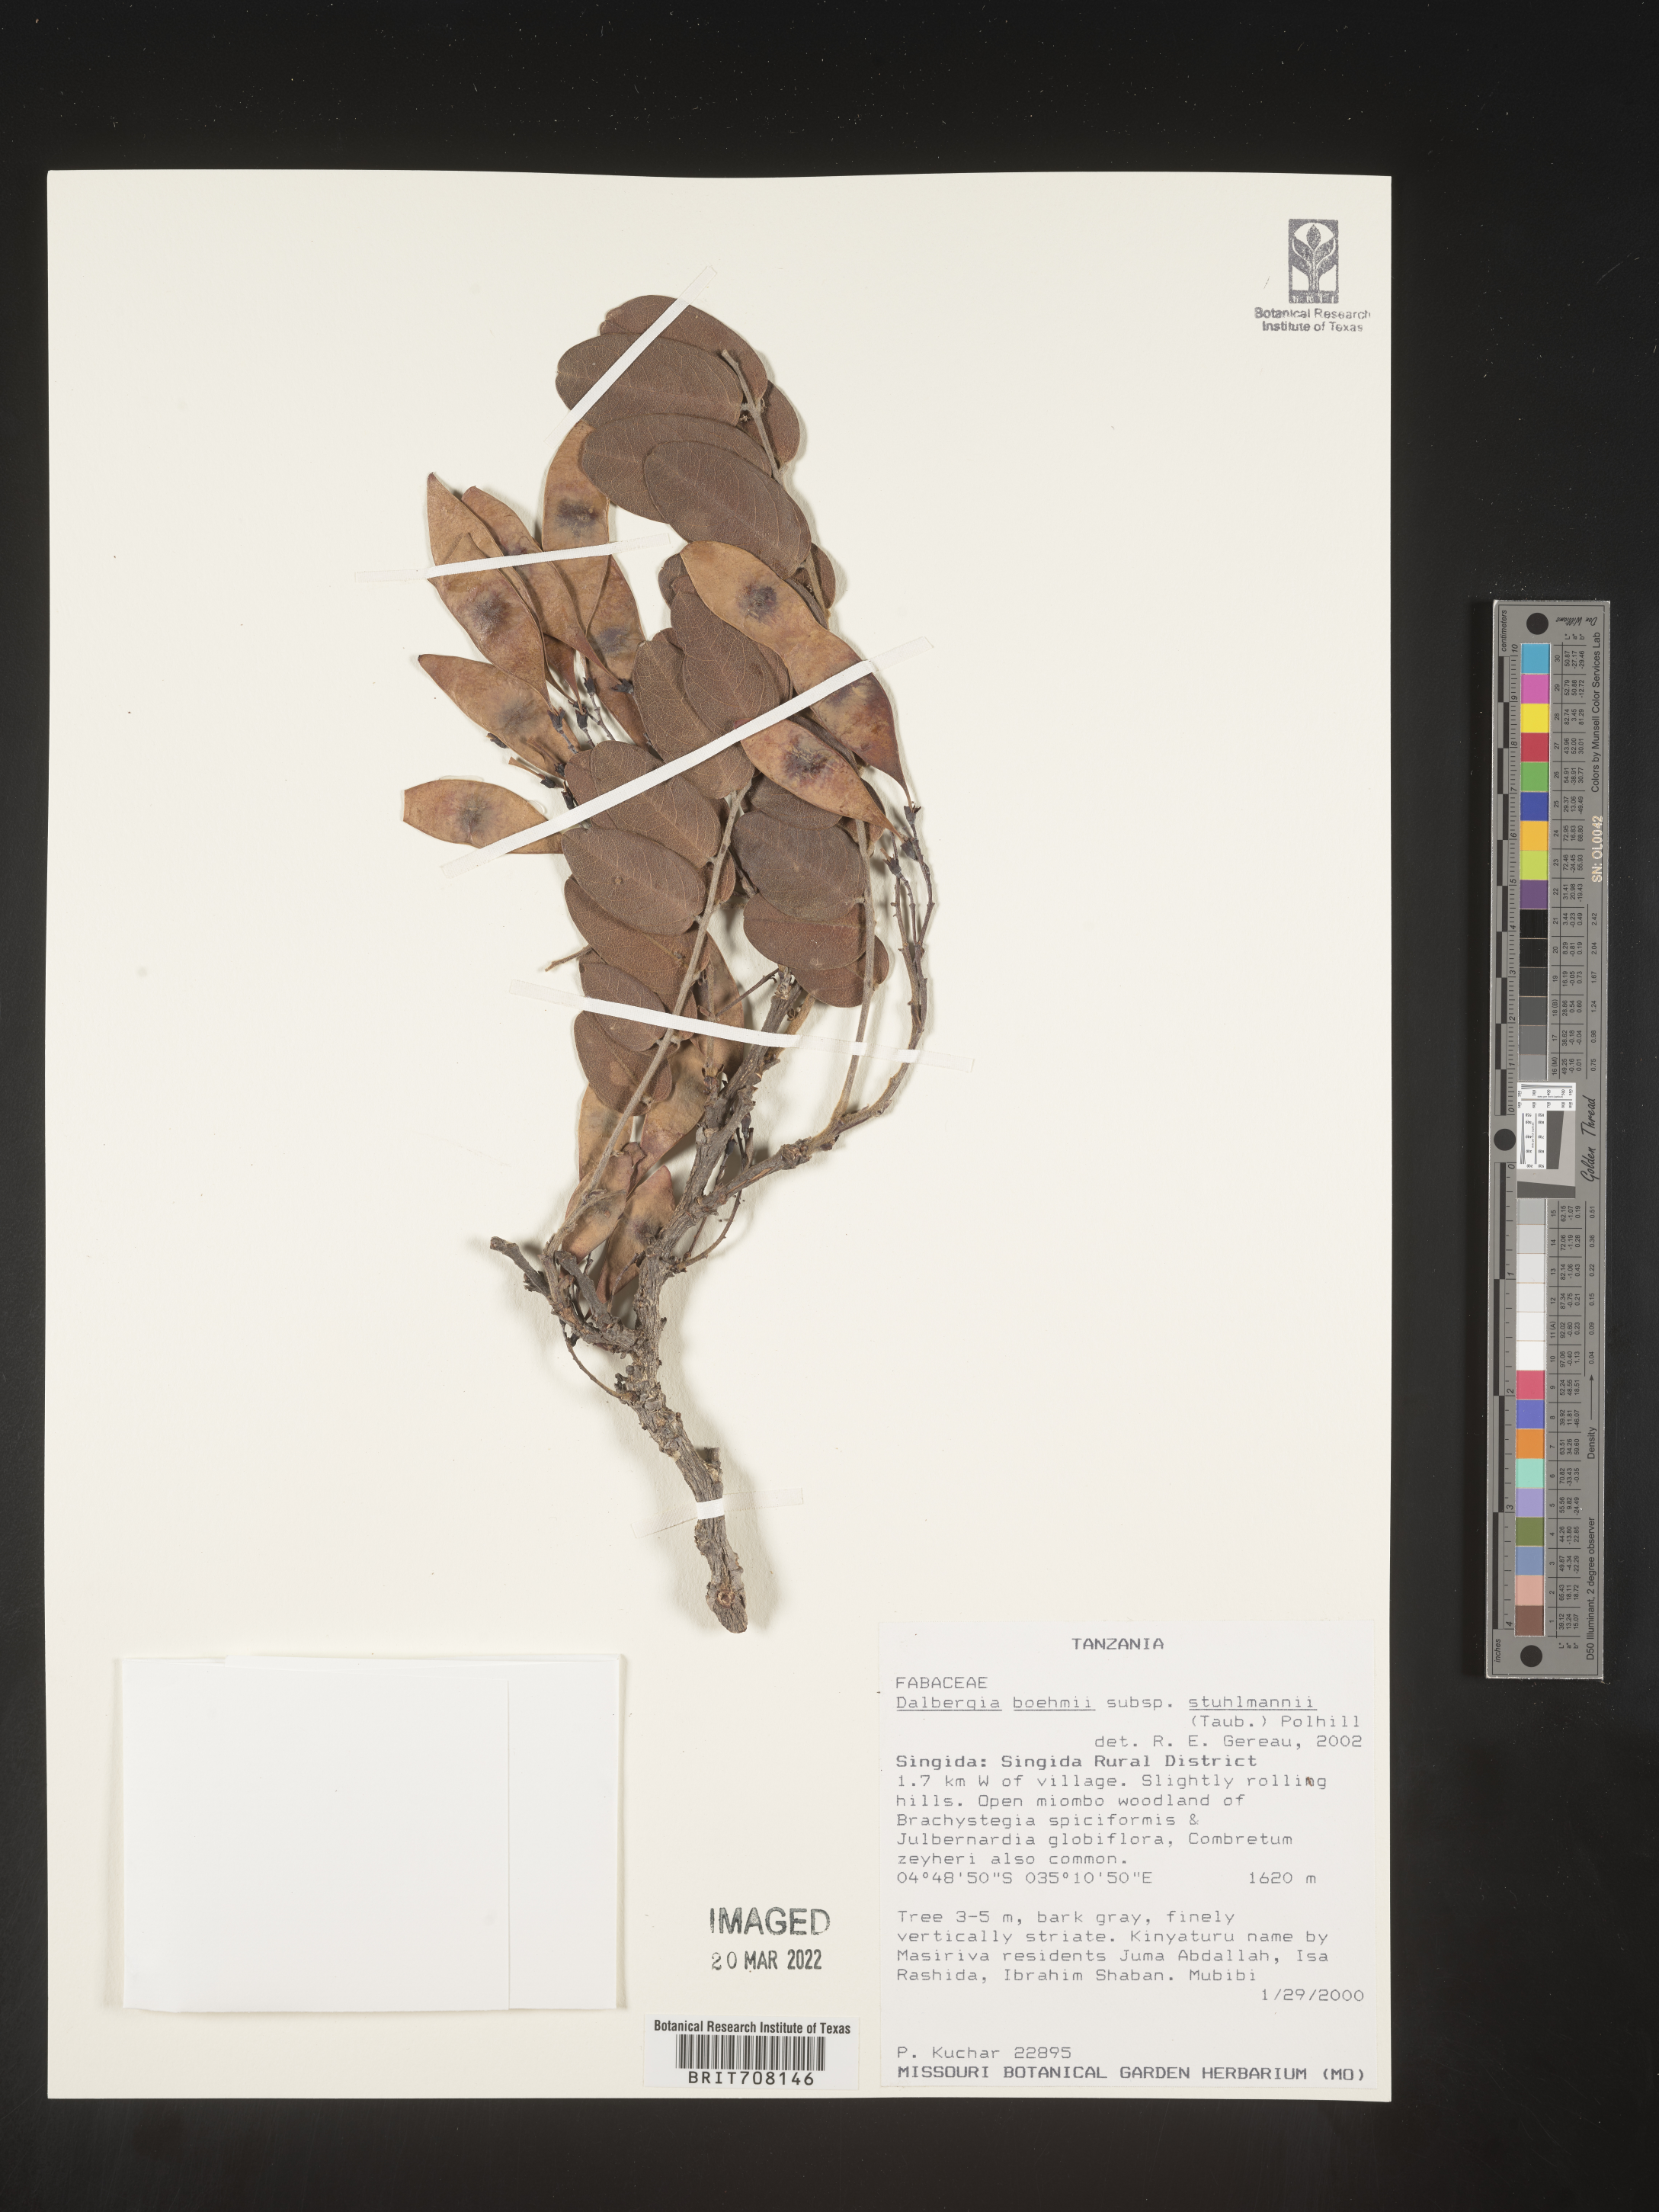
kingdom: Plantae
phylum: Tracheophyta
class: Magnoliopsida
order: Fabales
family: Fabaceae
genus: Dalbergia
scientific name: Dalbergia
